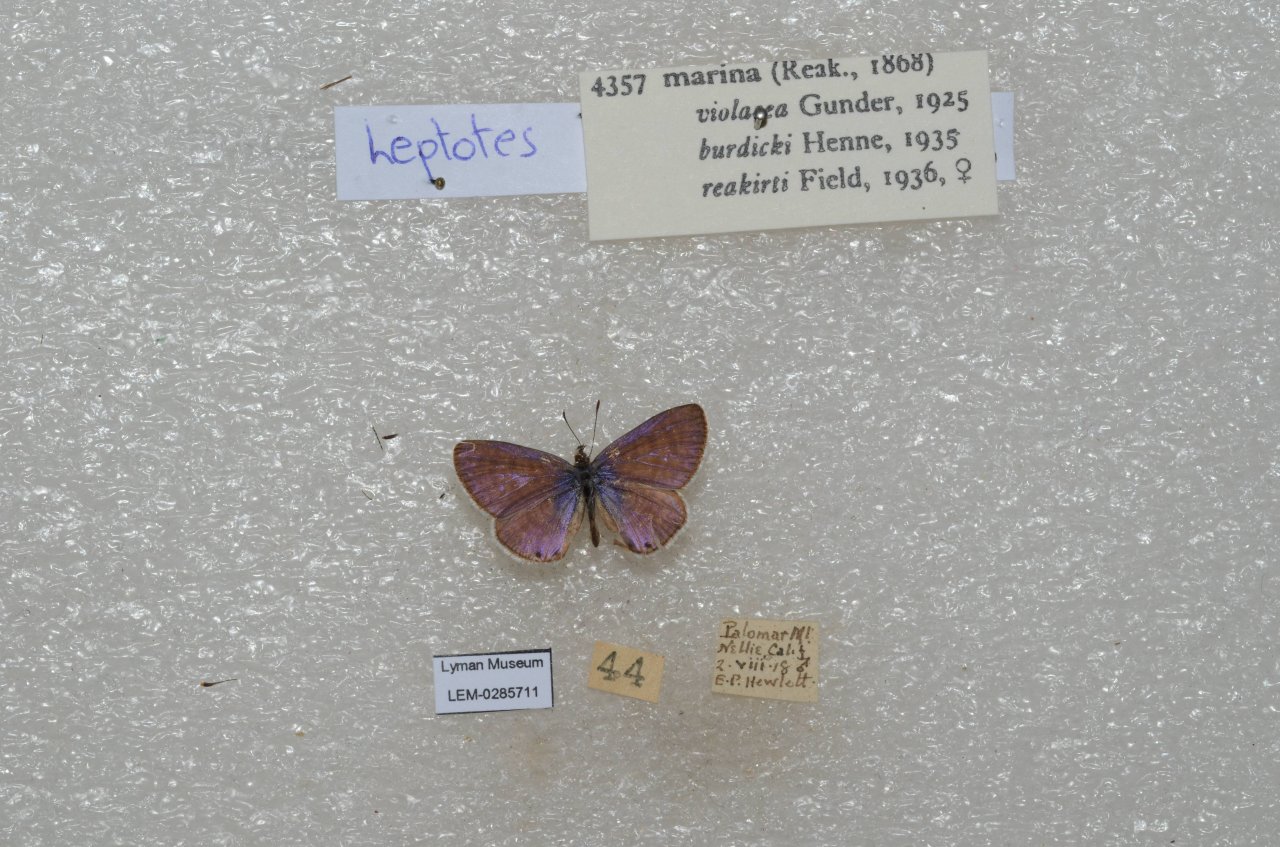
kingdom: Animalia
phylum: Arthropoda
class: Insecta
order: Lepidoptera
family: Lycaenidae
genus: Leptotes
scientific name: Leptotes marina
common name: Marine Blue
